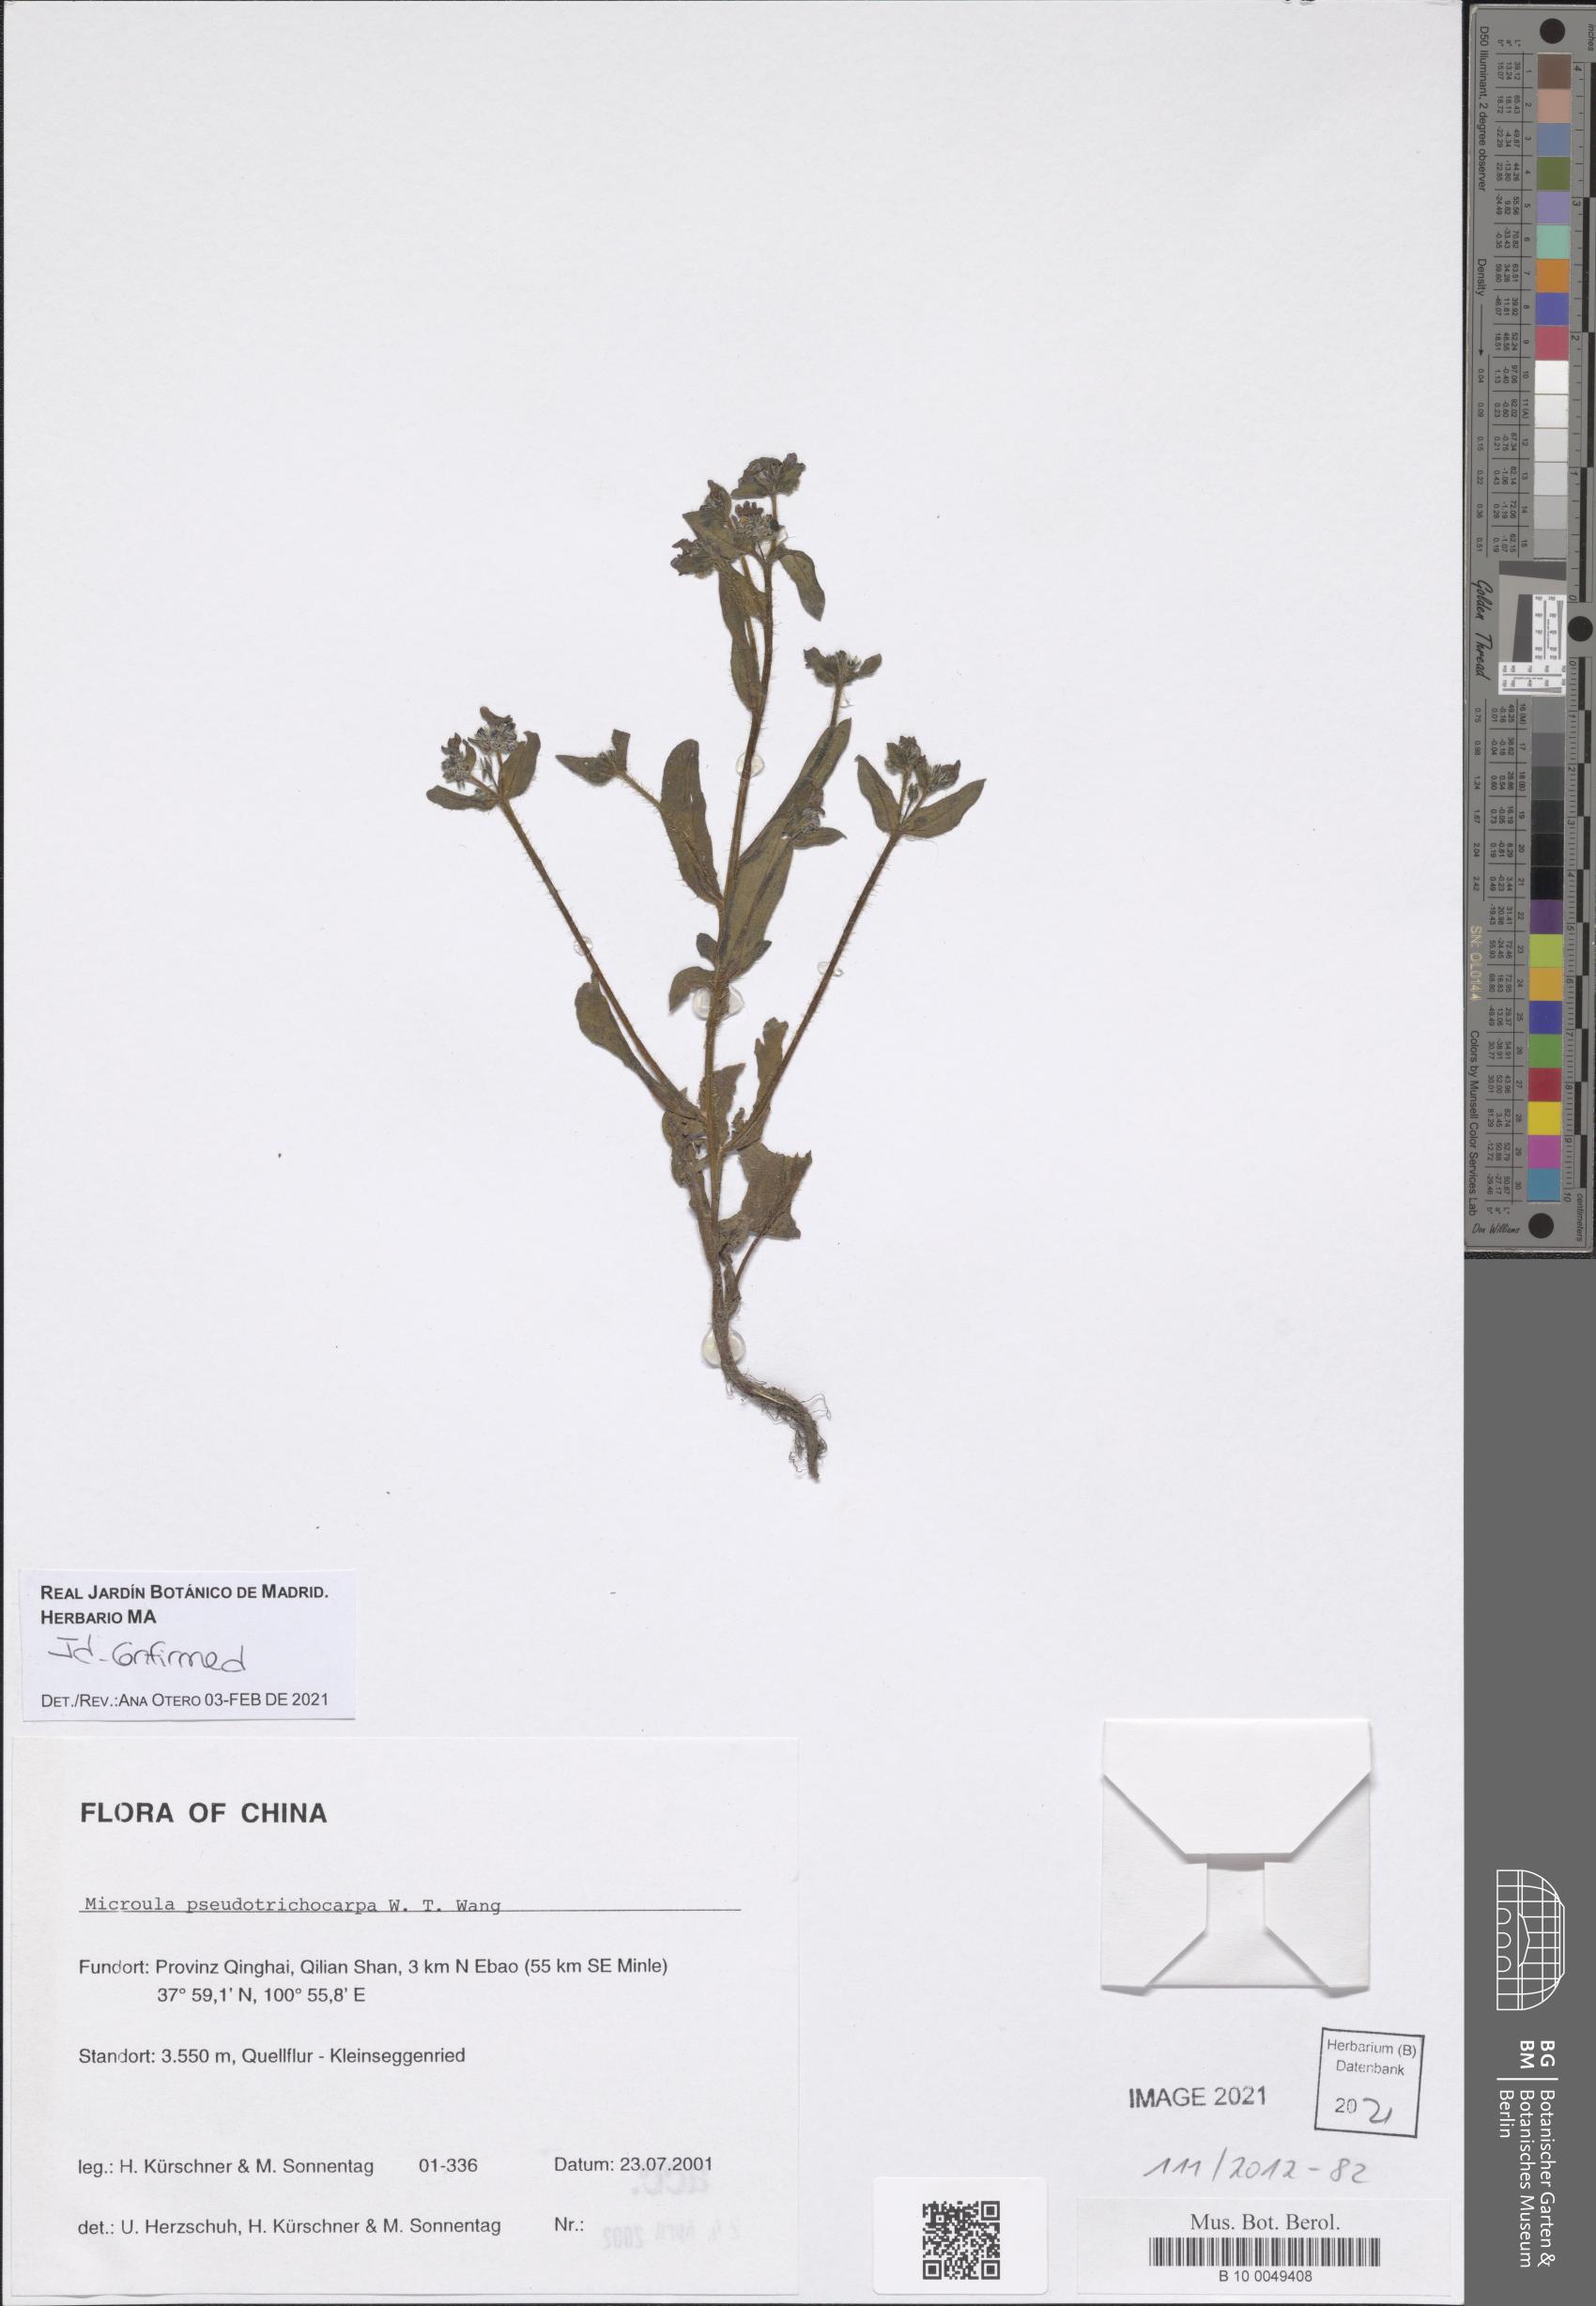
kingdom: Plantae
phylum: Tracheophyta
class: Magnoliopsida
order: Boraginales
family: Boraginaceae
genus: Microula
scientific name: Microula pseudotrichocarpa
